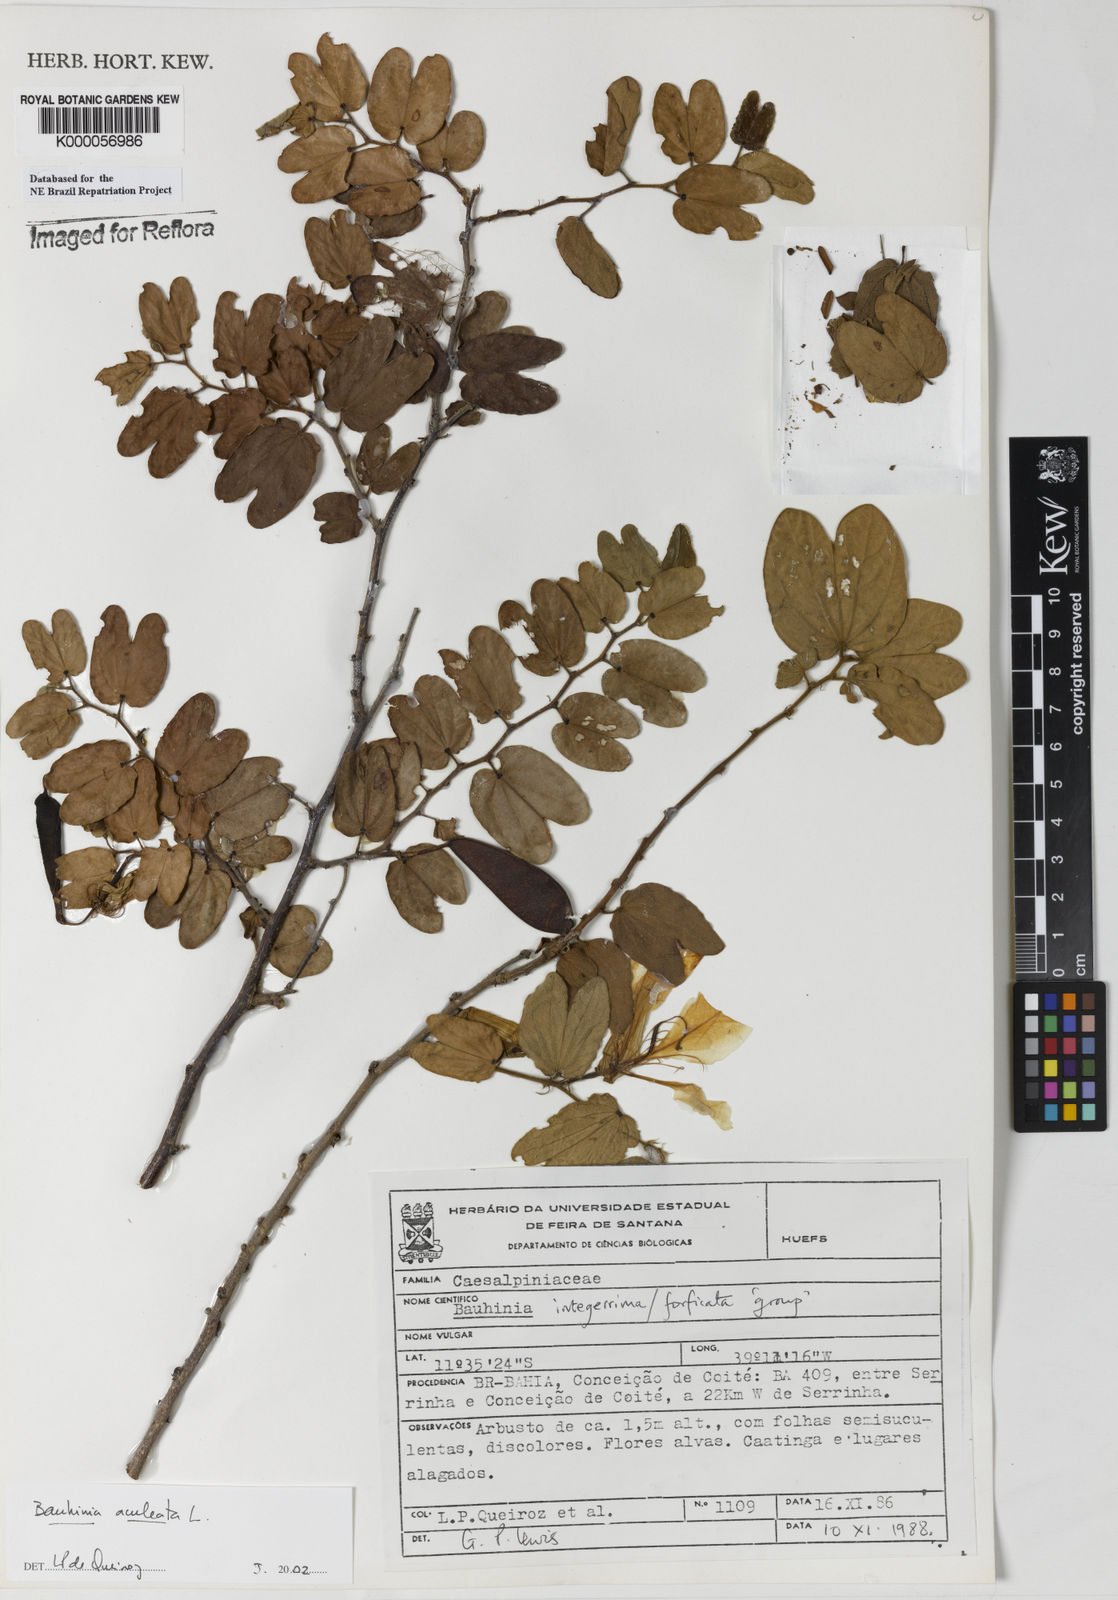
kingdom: Plantae
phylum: Tracheophyta
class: Magnoliopsida
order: Fabales
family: Fabaceae
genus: Bauhinia
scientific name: Bauhinia aculeata
